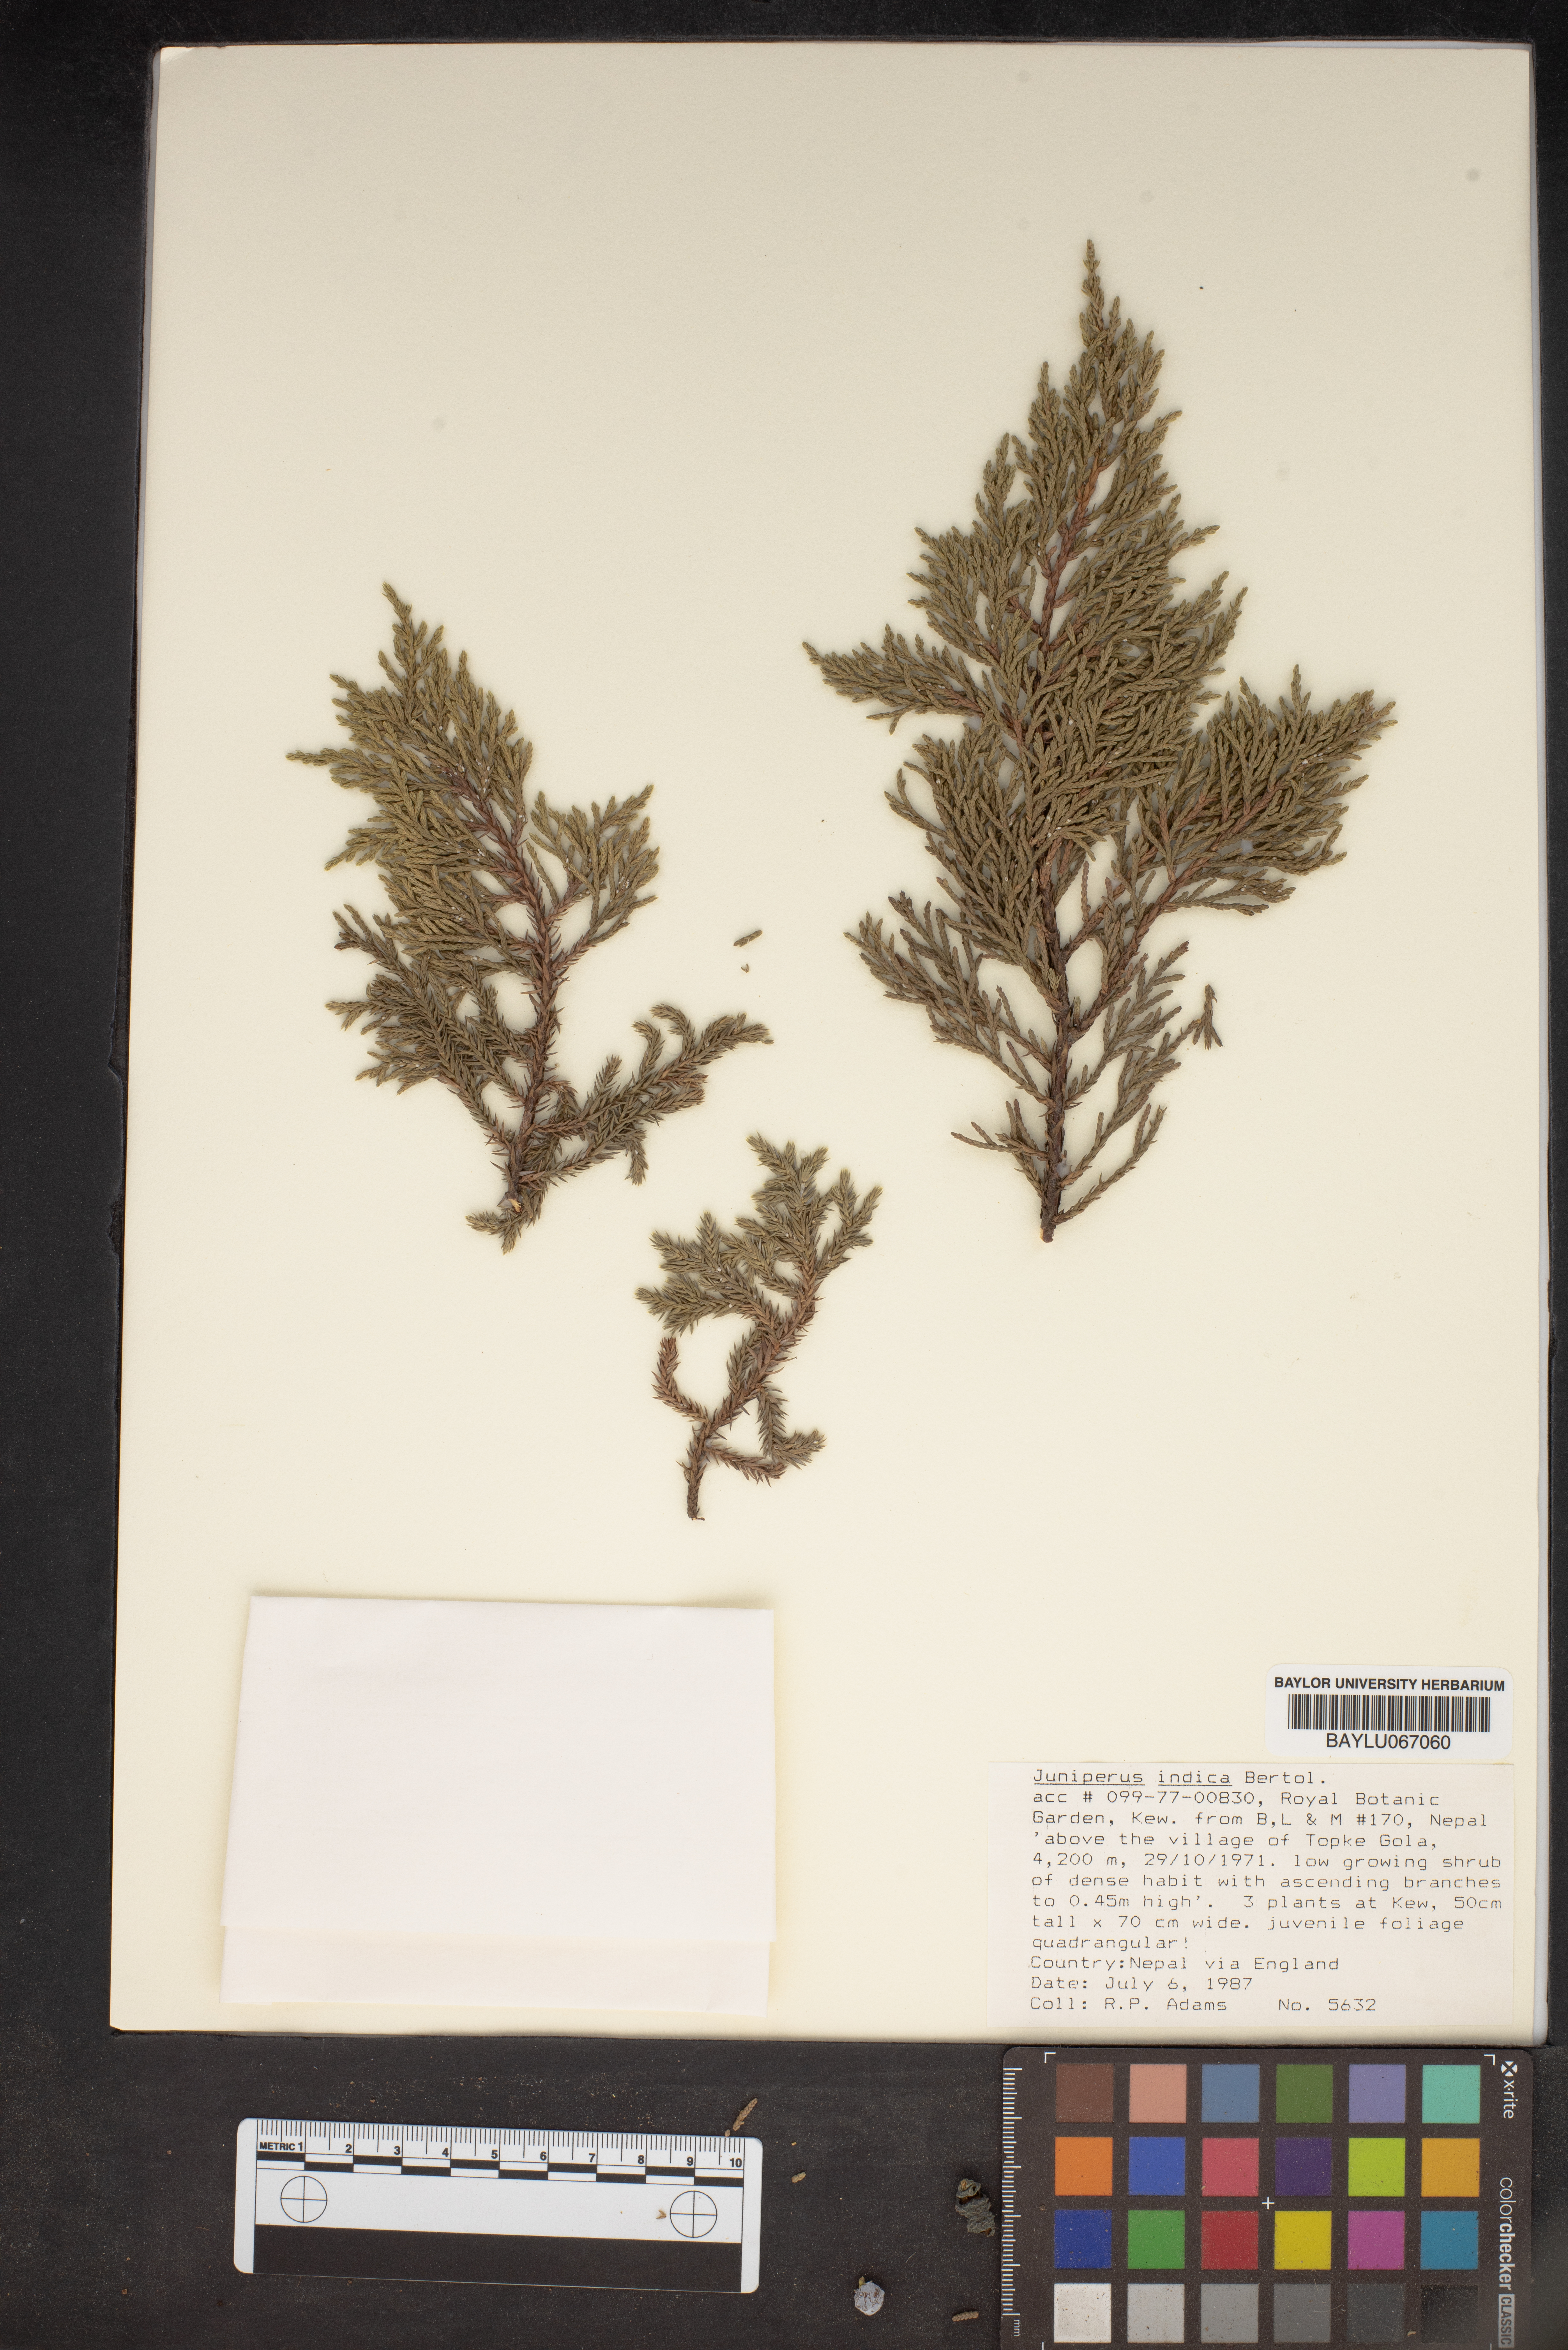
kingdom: Plantae
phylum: Tracheophyta
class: Pinopsida
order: Pinales
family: Cupressaceae
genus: Juniperus
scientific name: Juniperus indica
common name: Black juniper
